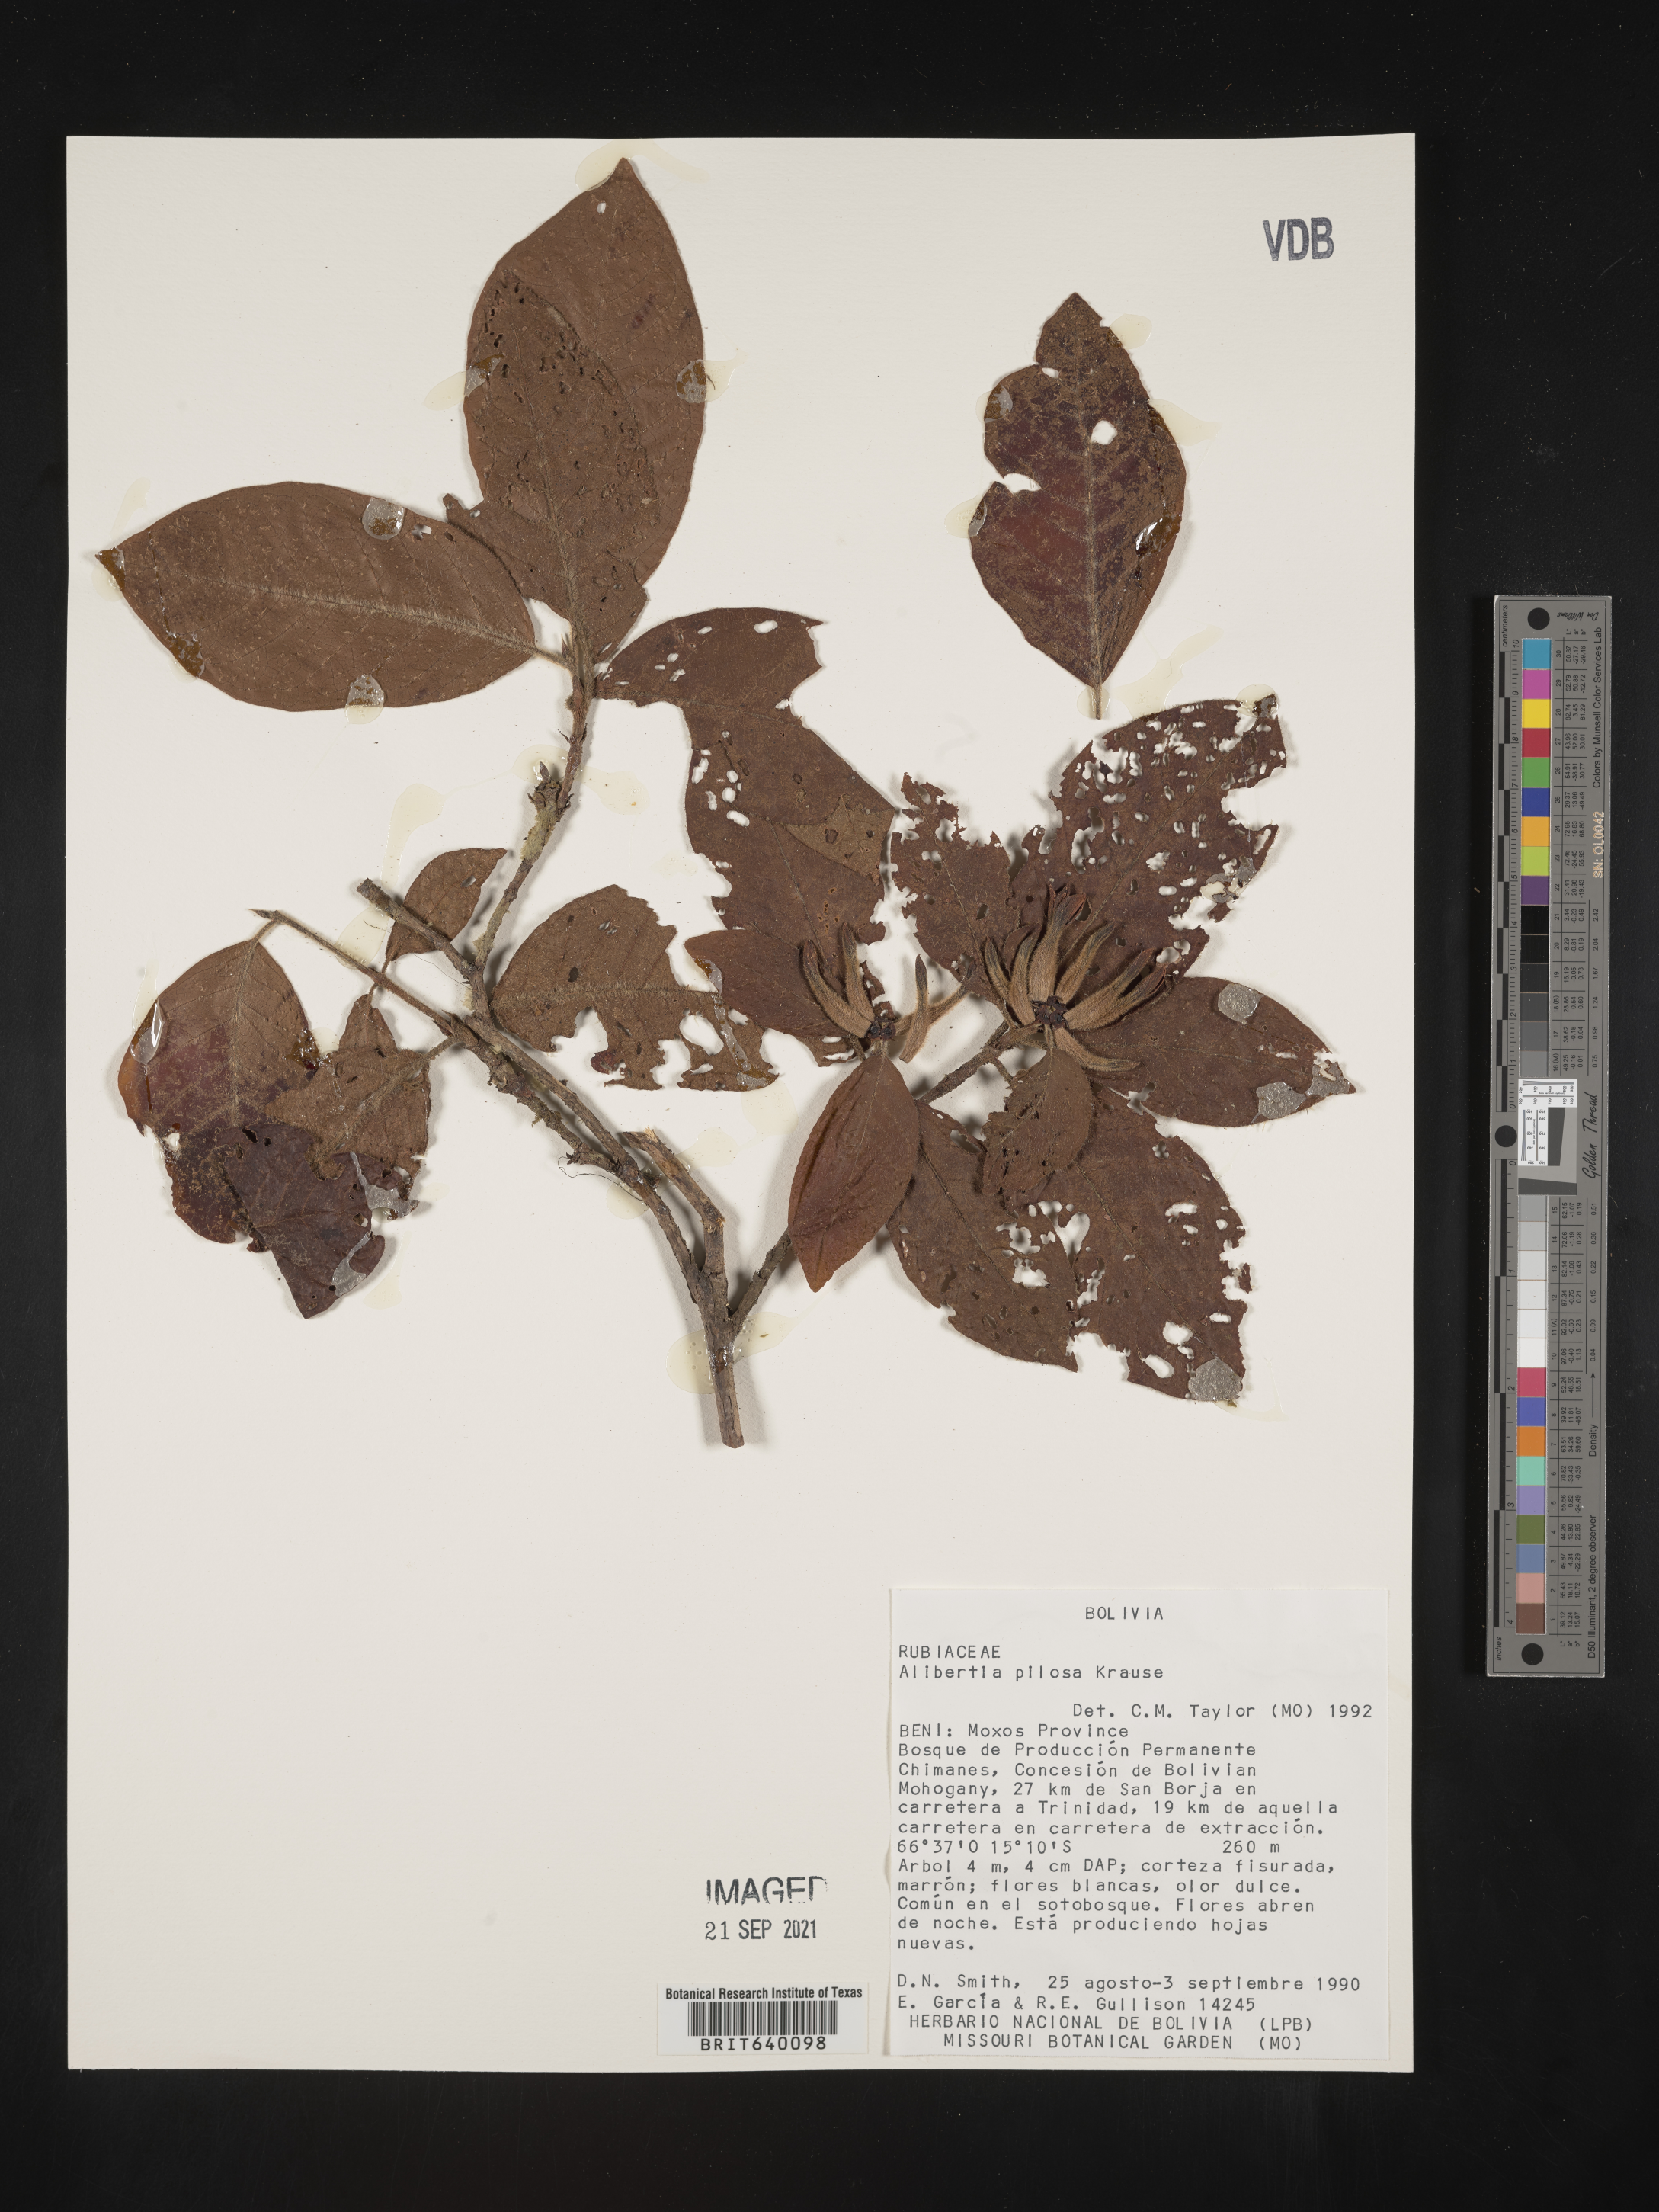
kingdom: Plantae
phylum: Tracheophyta
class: Magnoliopsida
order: Gentianales
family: Rubiaceae
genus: Alibertia
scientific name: Alibertia
